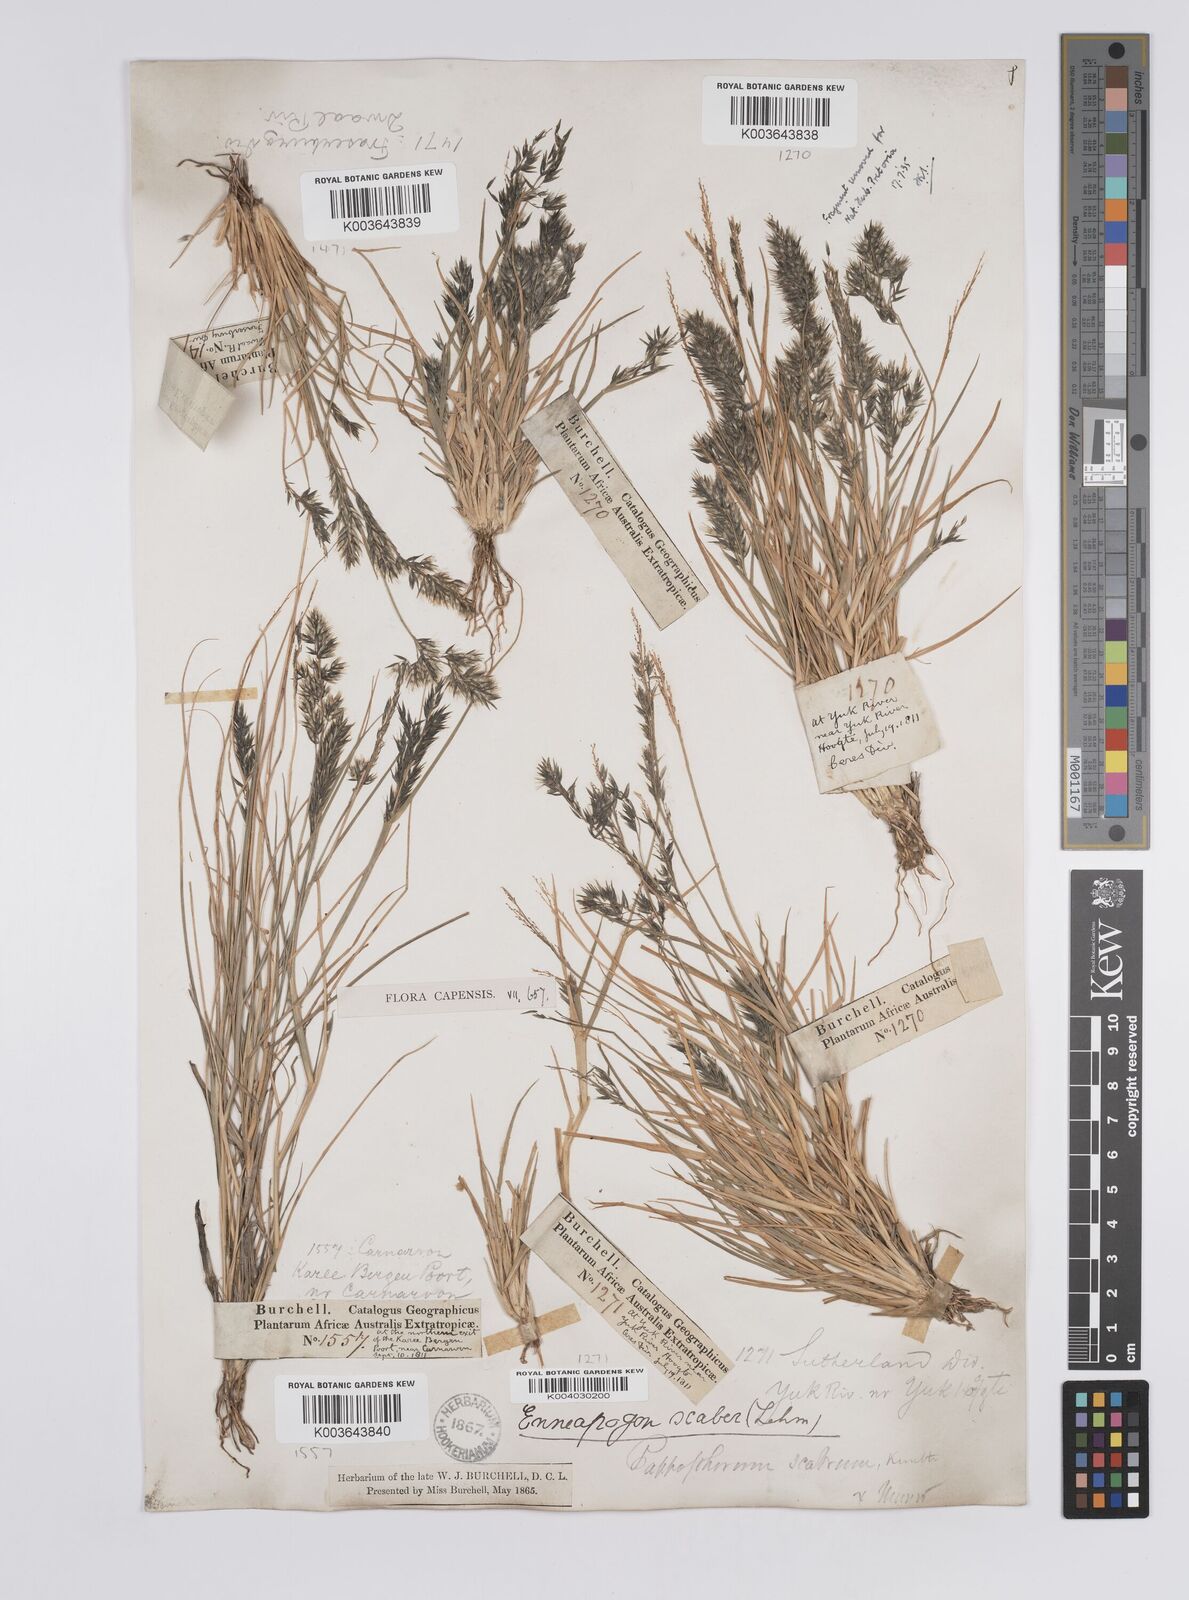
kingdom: Plantae
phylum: Tracheophyta
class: Liliopsida
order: Poales
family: Poaceae
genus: Enneapogon
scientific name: Enneapogon scaber
